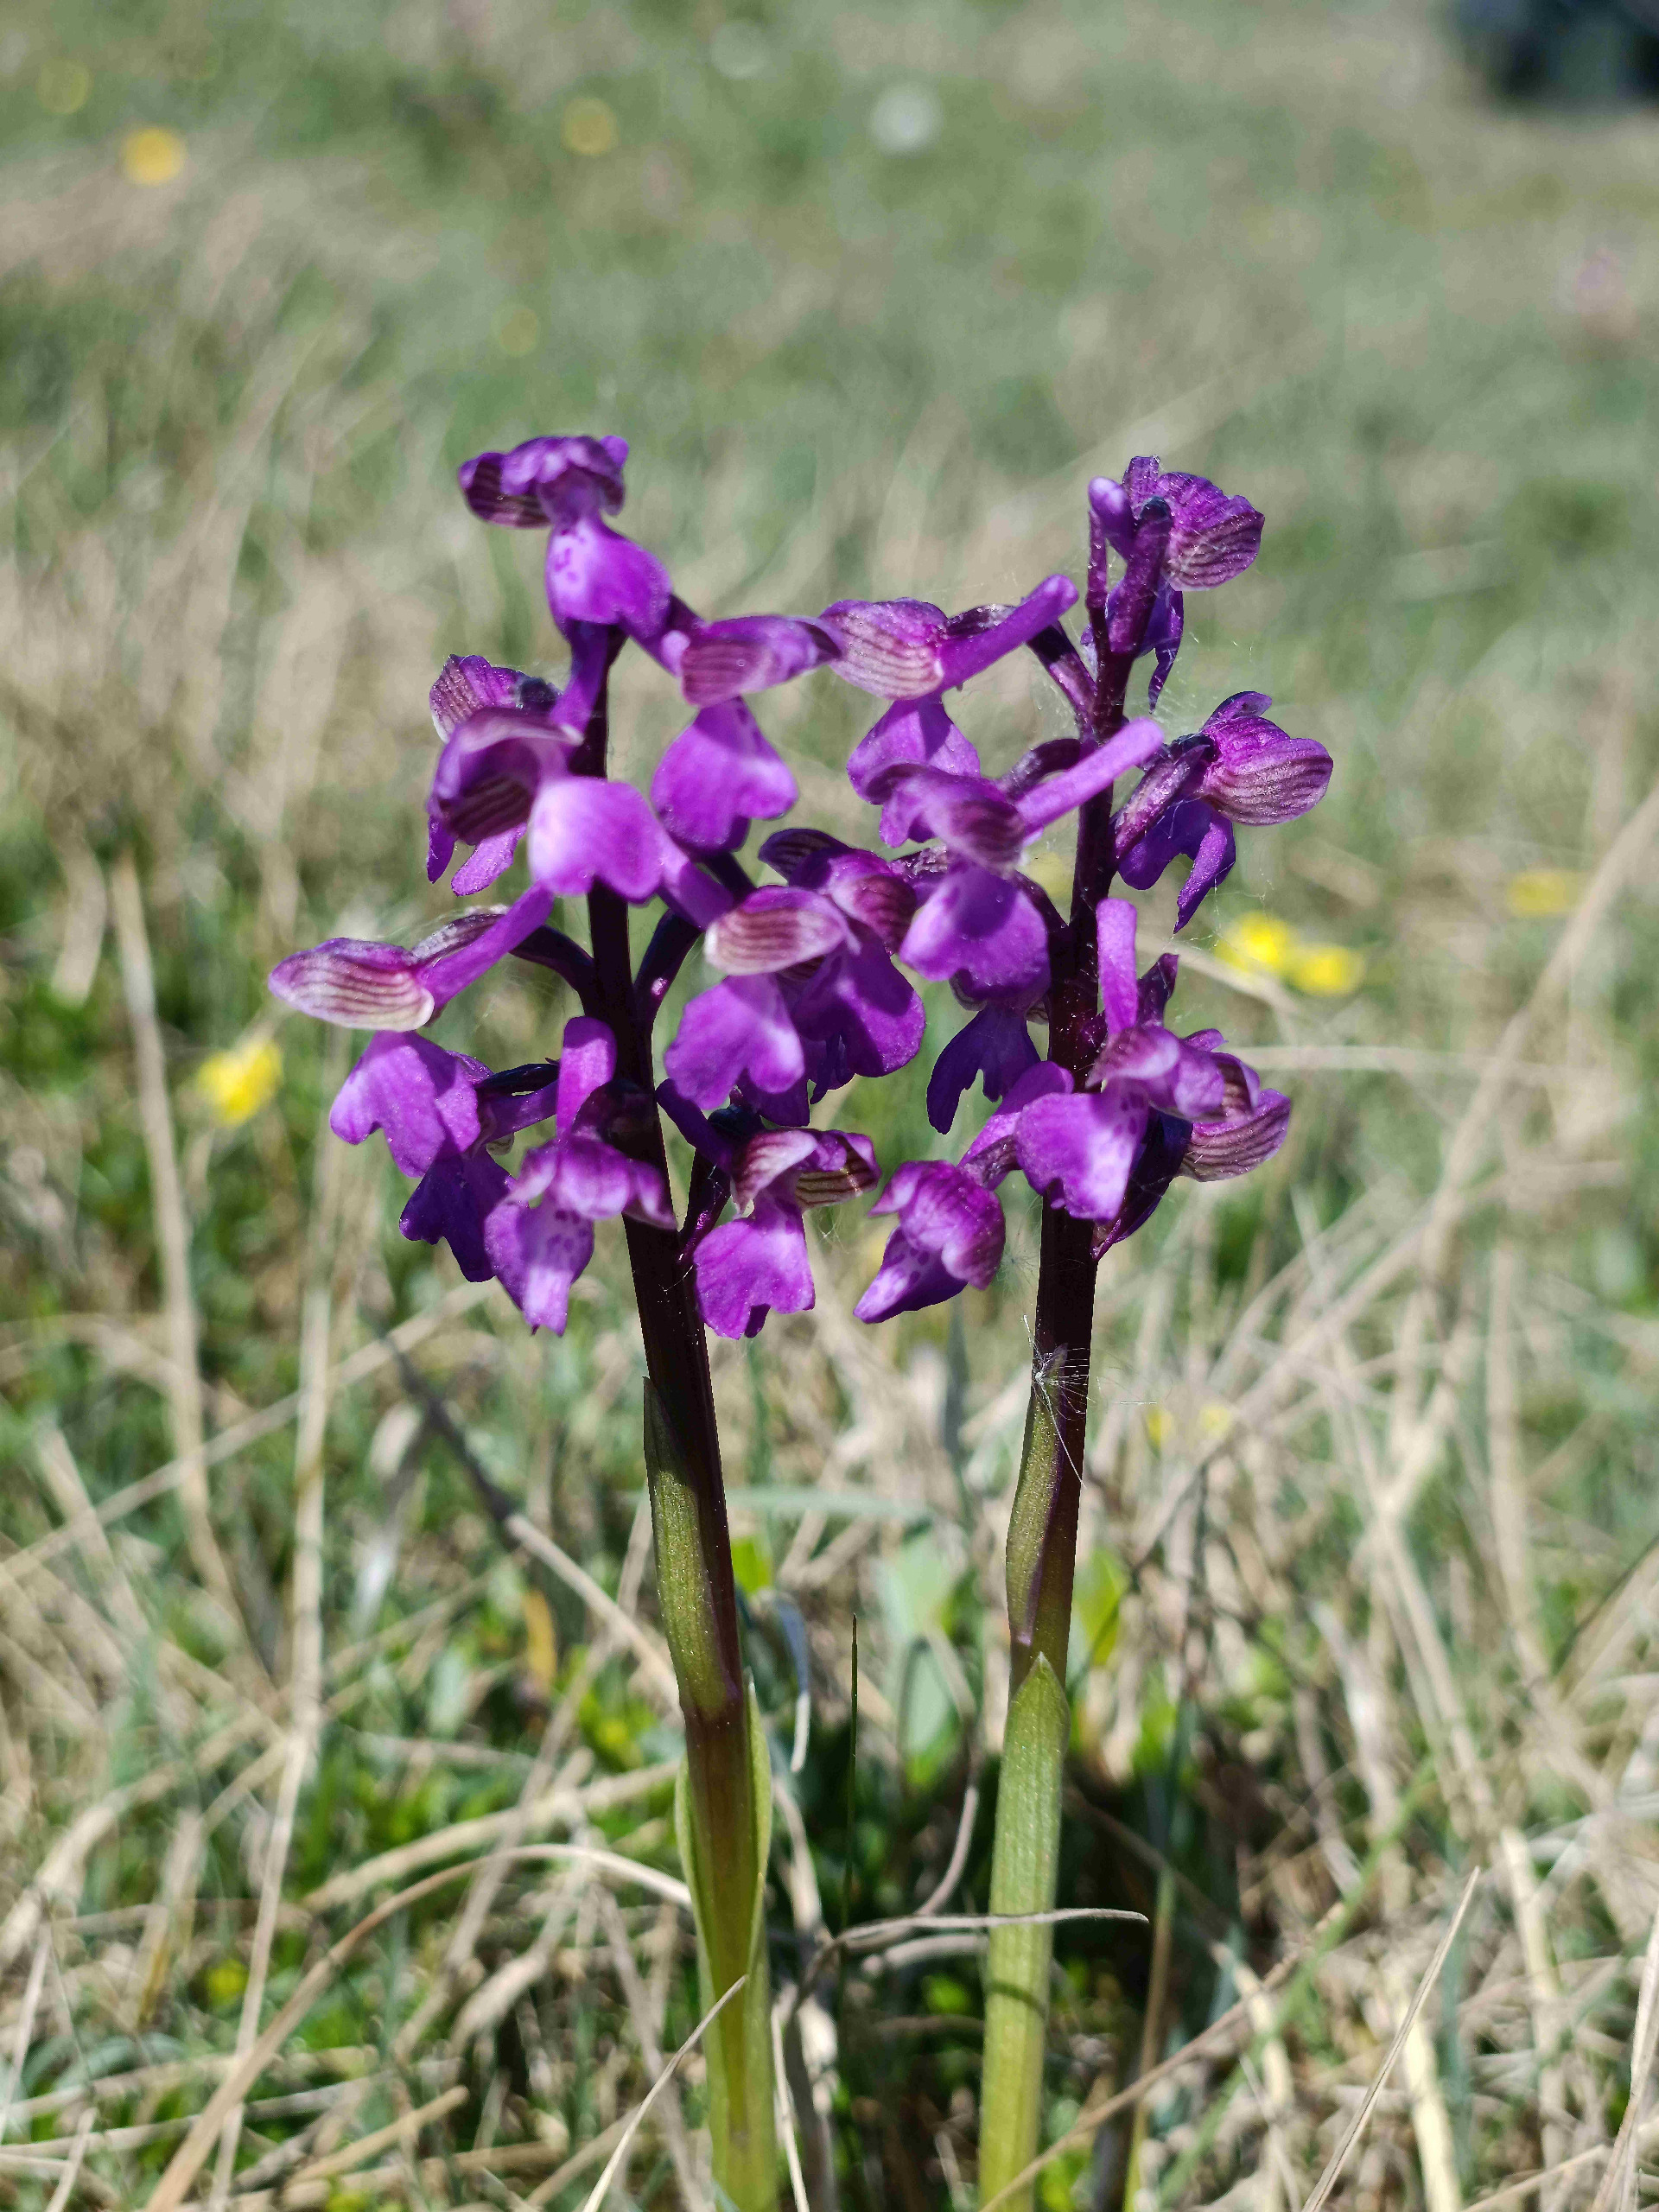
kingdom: Plantae
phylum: Tracheophyta
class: Liliopsida
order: Asparagales
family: Orchidaceae
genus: Anacamptis
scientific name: Anacamptis morio
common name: Salepgøgeurt
